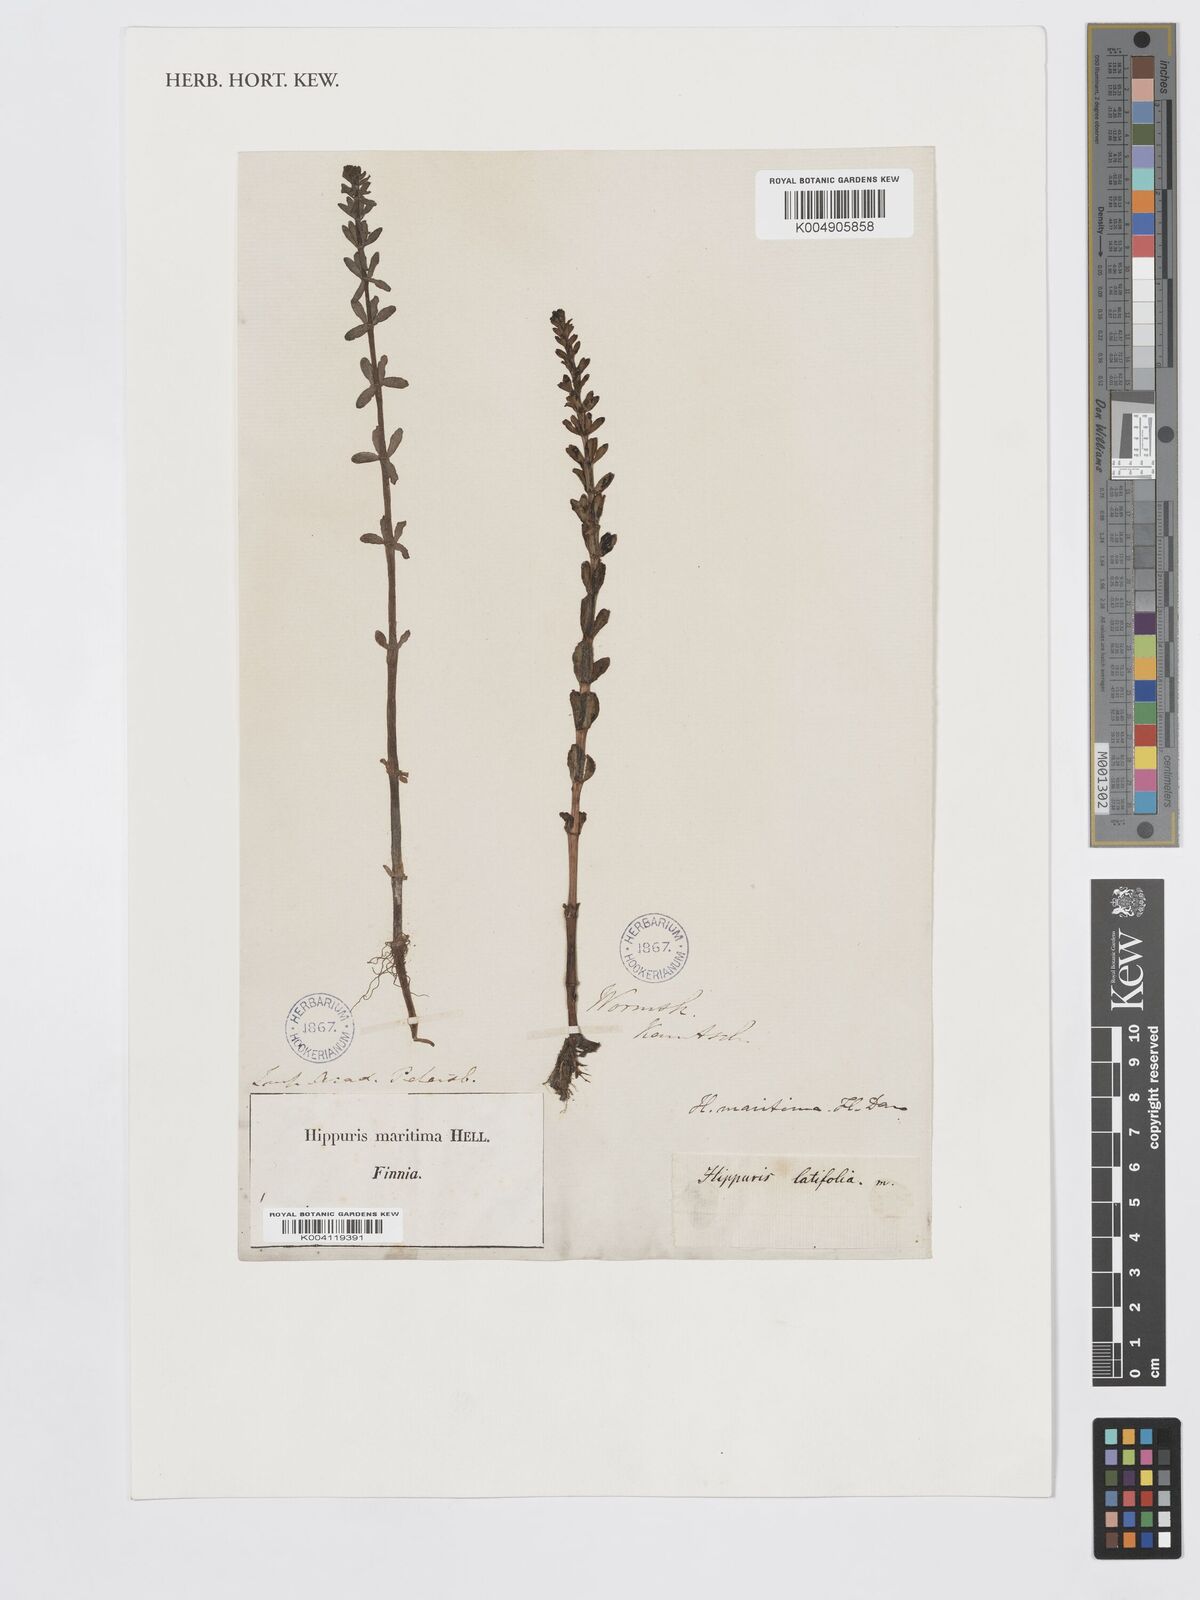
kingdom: Plantae
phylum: Tracheophyta
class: Magnoliopsida
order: Lamiales
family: Plantaginaceae
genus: Hippuris
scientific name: Hippuris tetraphylla
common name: Four-leaved mare's-tail
